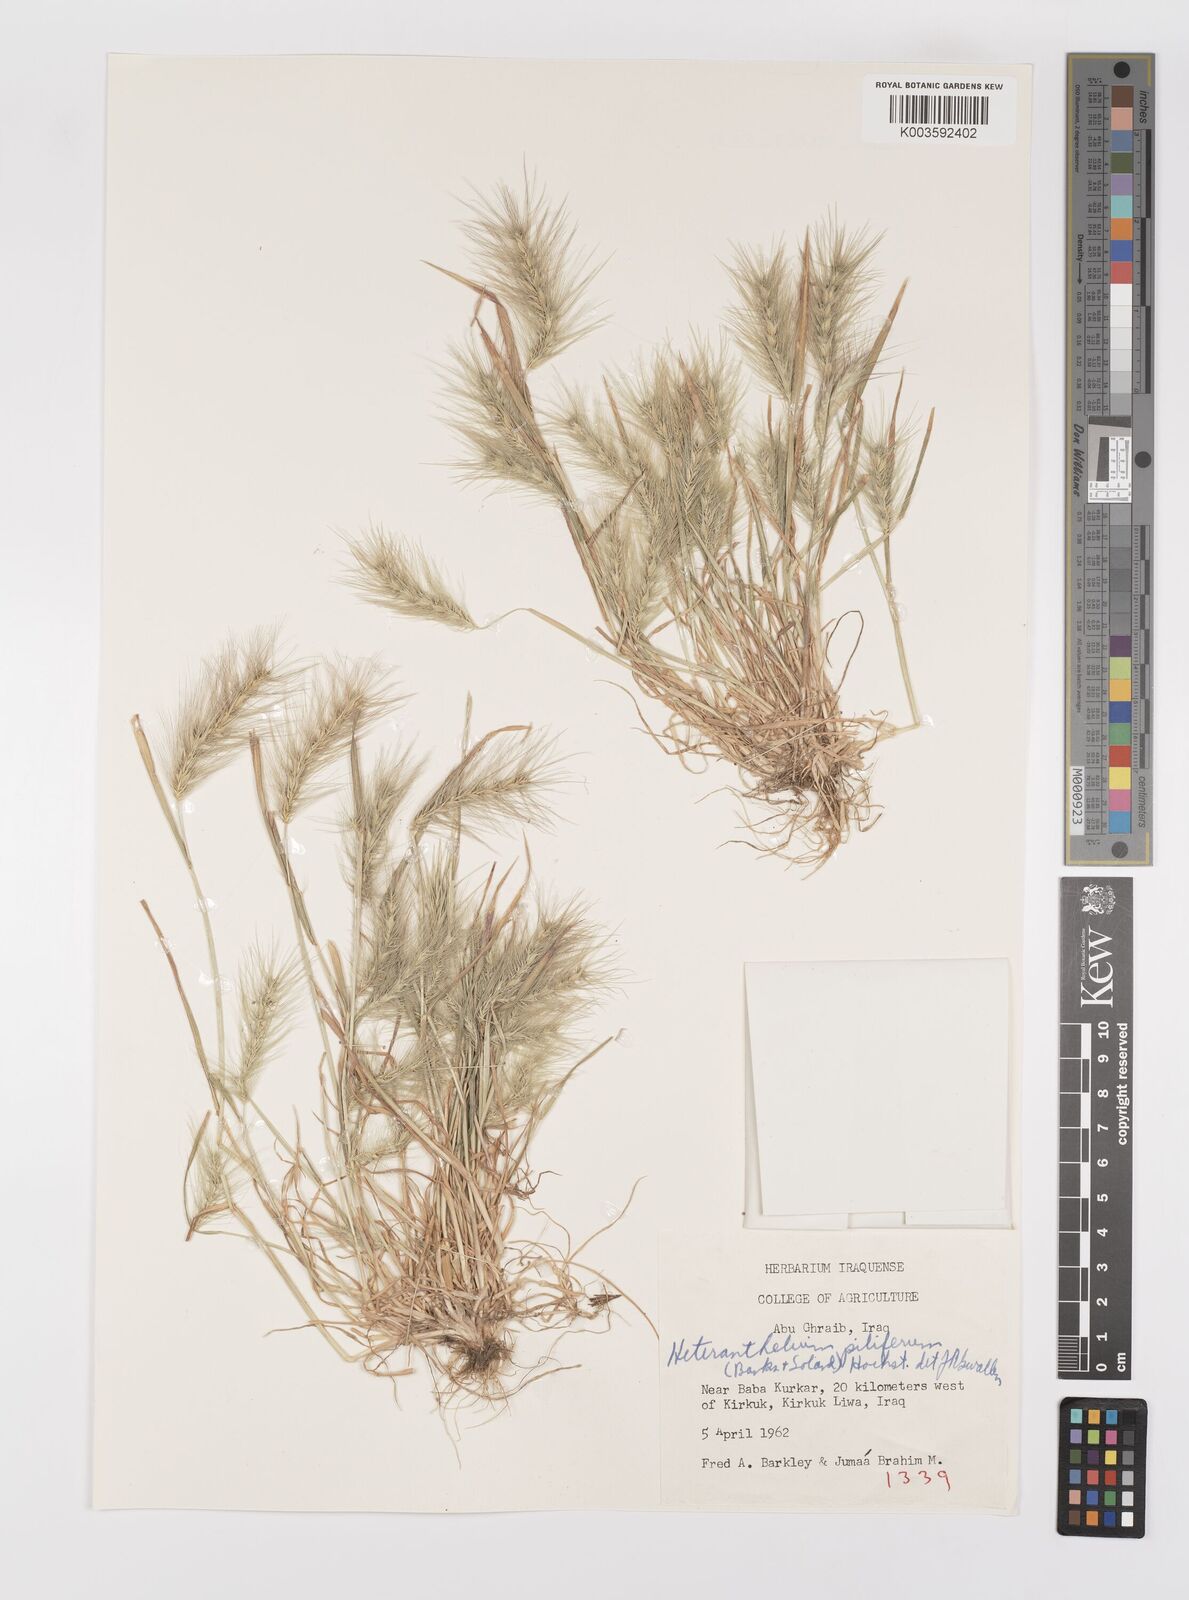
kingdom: Plantae
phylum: Tracheophyta
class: Liliopsida
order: Poales
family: Poaceae
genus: Heteranthelium
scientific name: Heteranthelium piliferum
